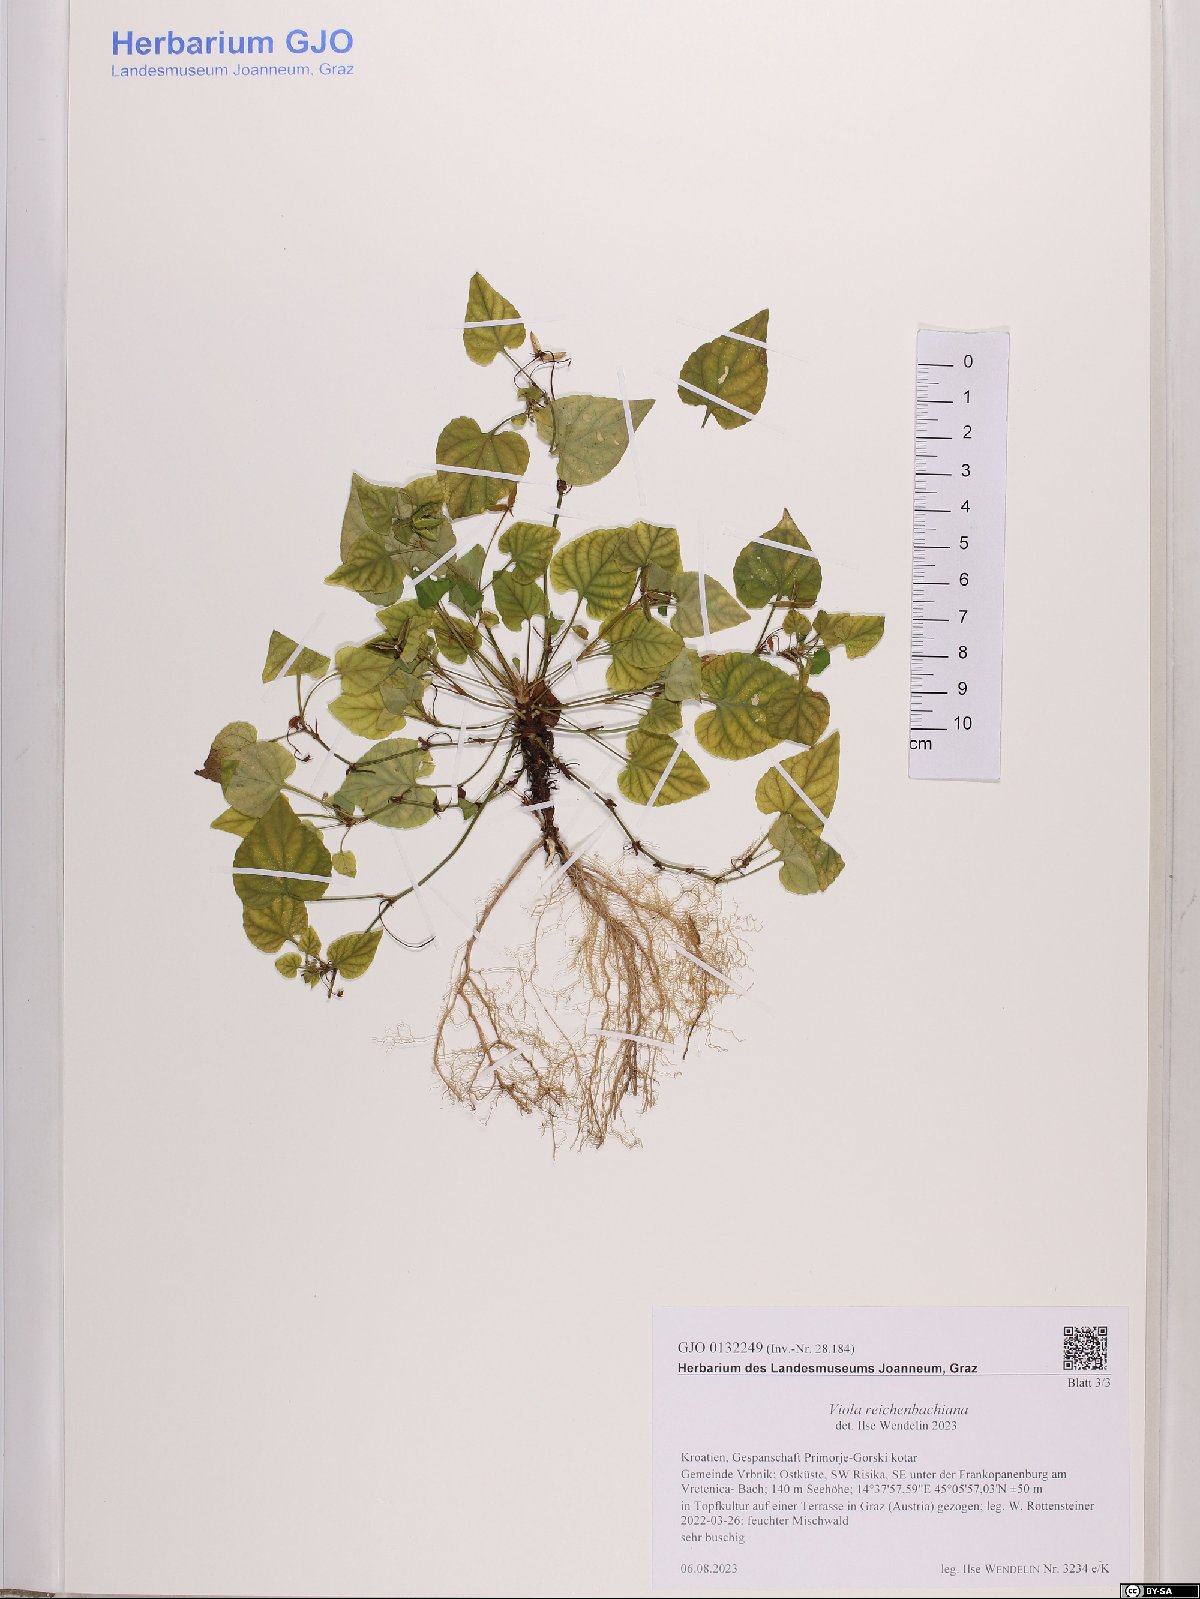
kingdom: Plantae
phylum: Tracheophyta
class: Magnoliopsida
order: Malpighiales
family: Violaceae
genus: Viola
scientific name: Viola reichenbachiana
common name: Early dog-violet
